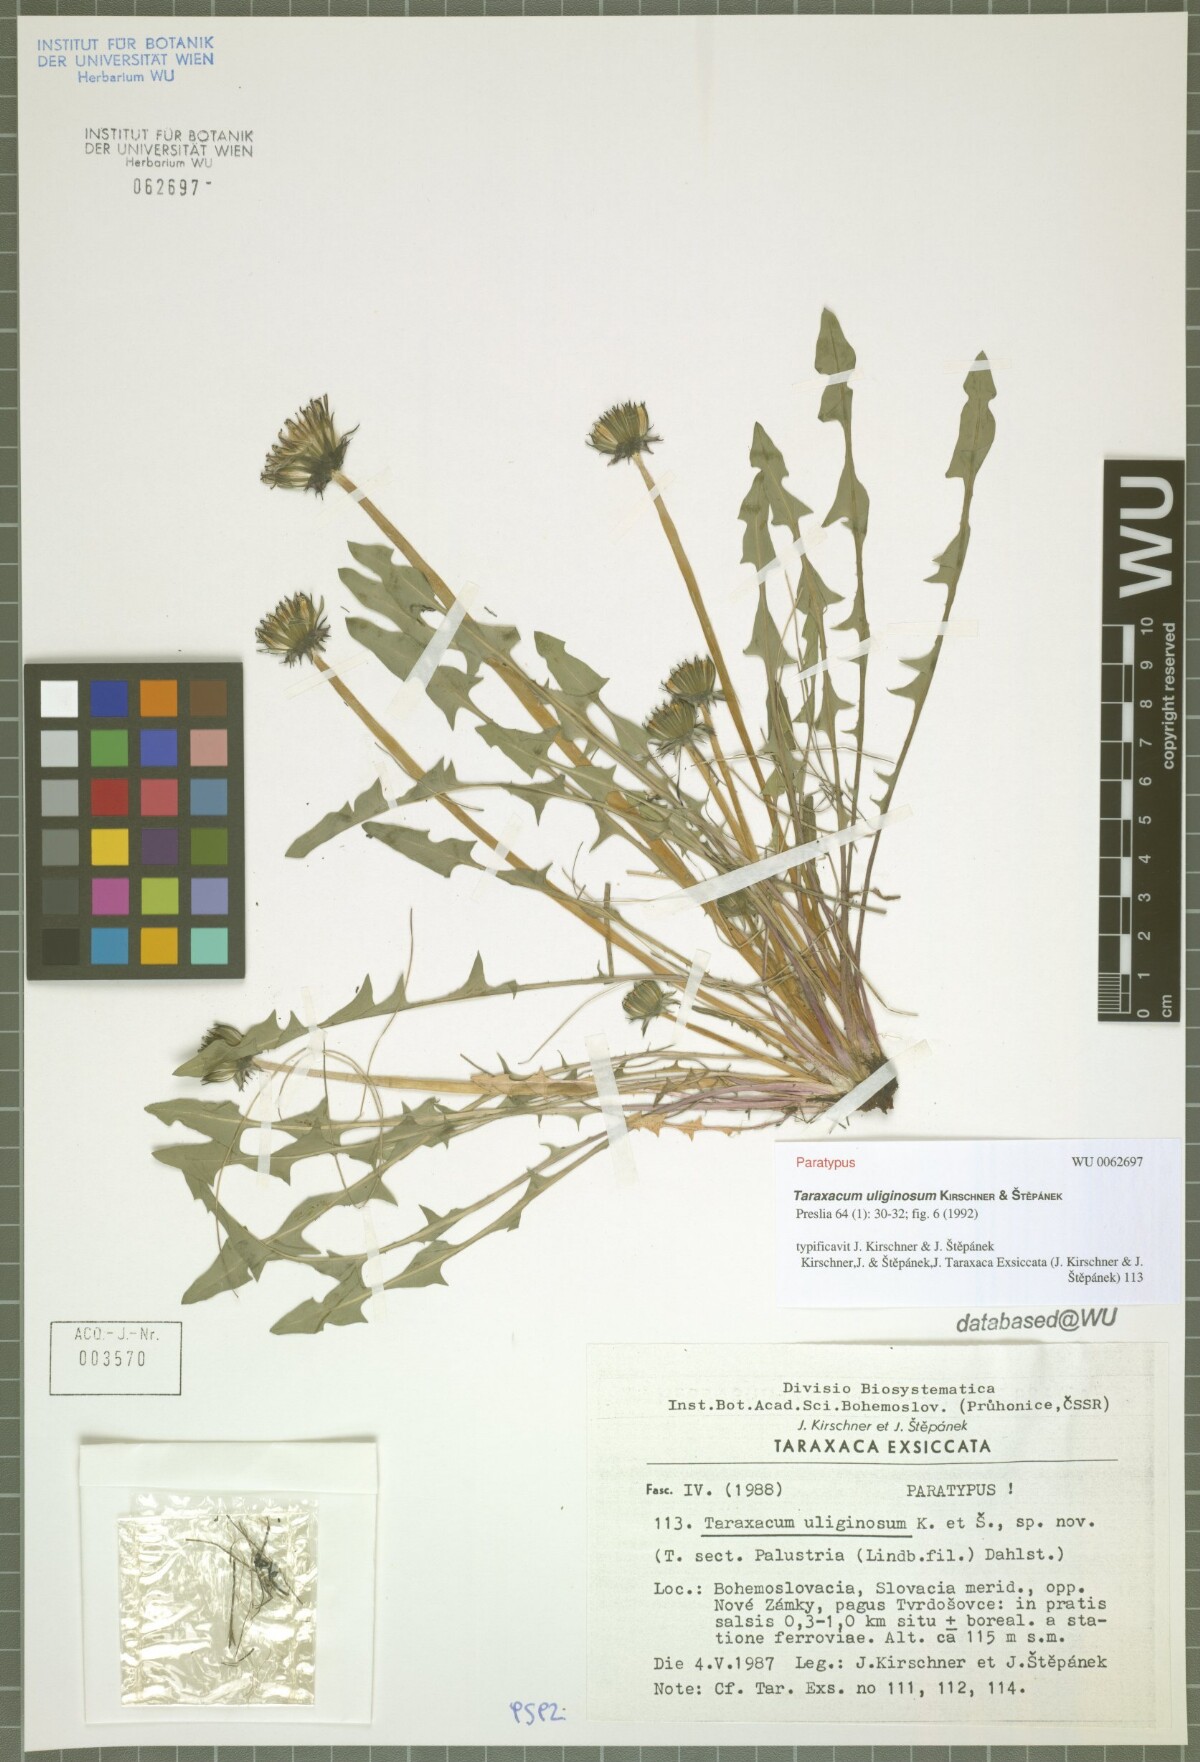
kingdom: Plantae
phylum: Tracheophyta
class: Magnoliopsida
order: Asterales
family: Asteraceae
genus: Taraxacum
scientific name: Taraxacum uliginosum
